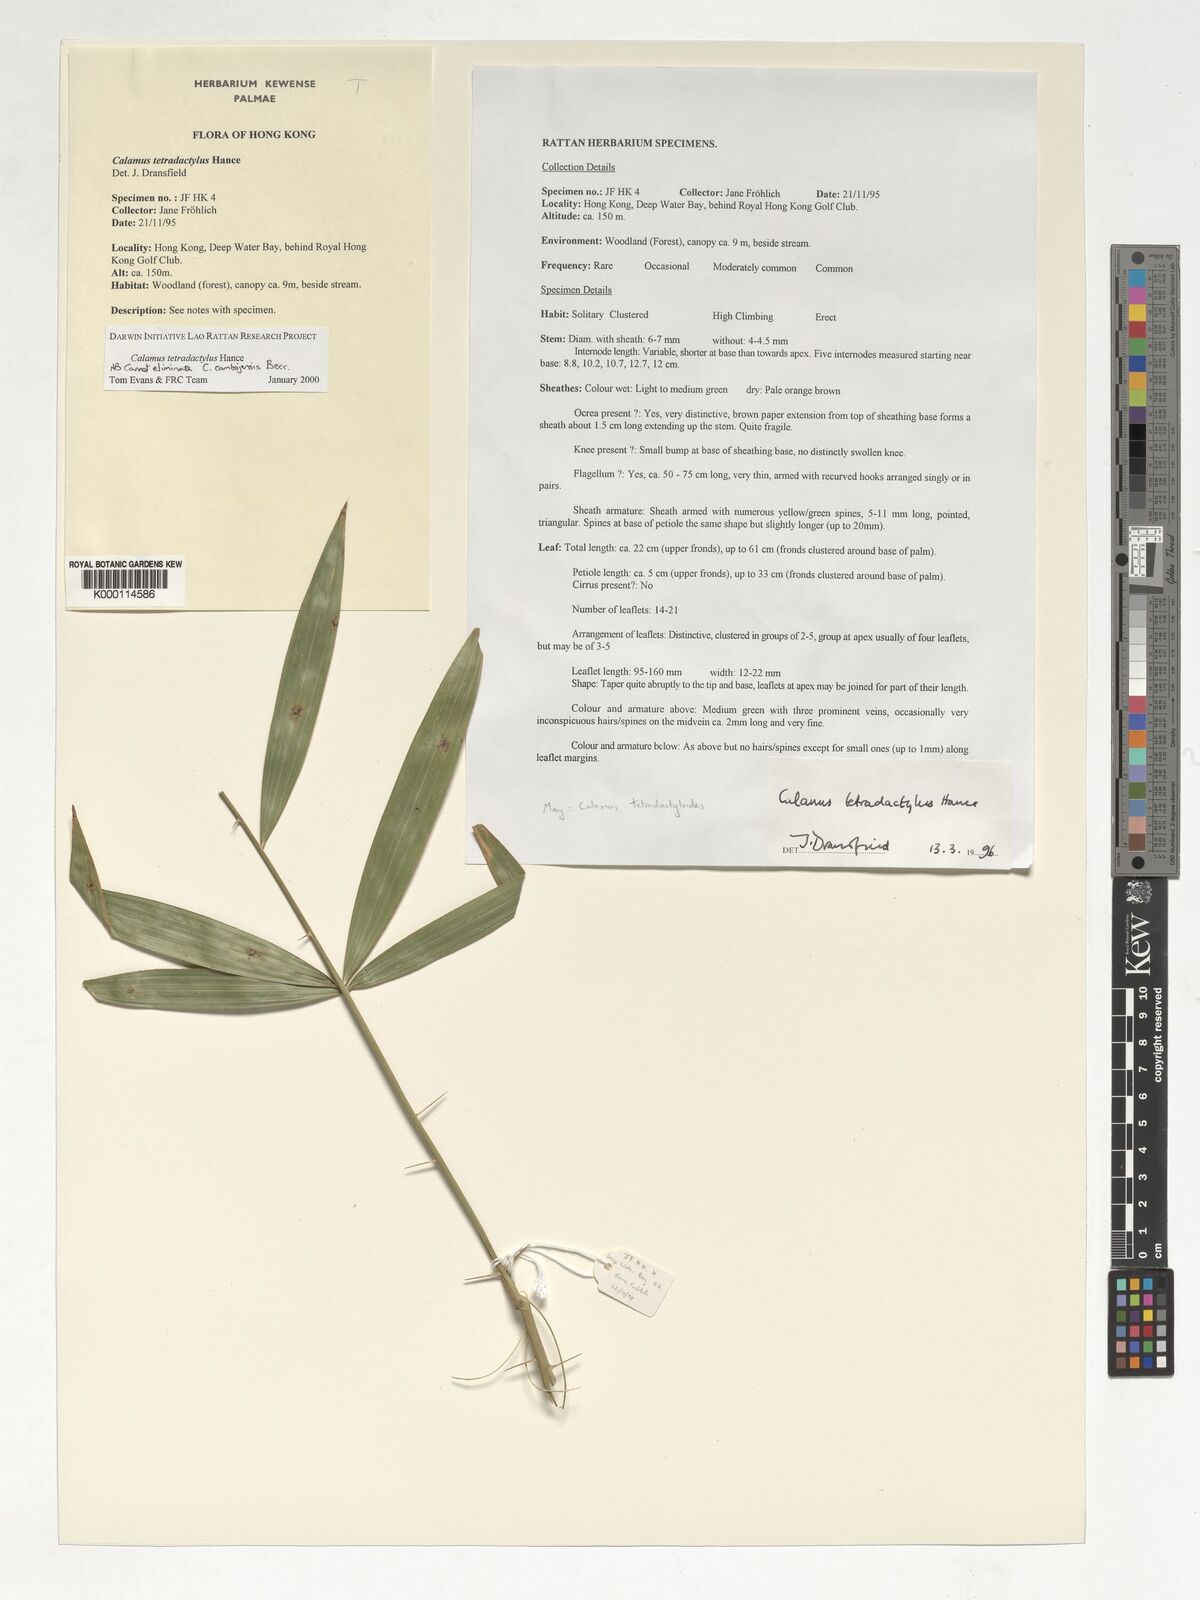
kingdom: Plantae
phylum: Tracheophyta
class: Liliopsida
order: Arecales
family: Arecaceae
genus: Calamus
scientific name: Calamus tetradactylus
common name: White rattan
